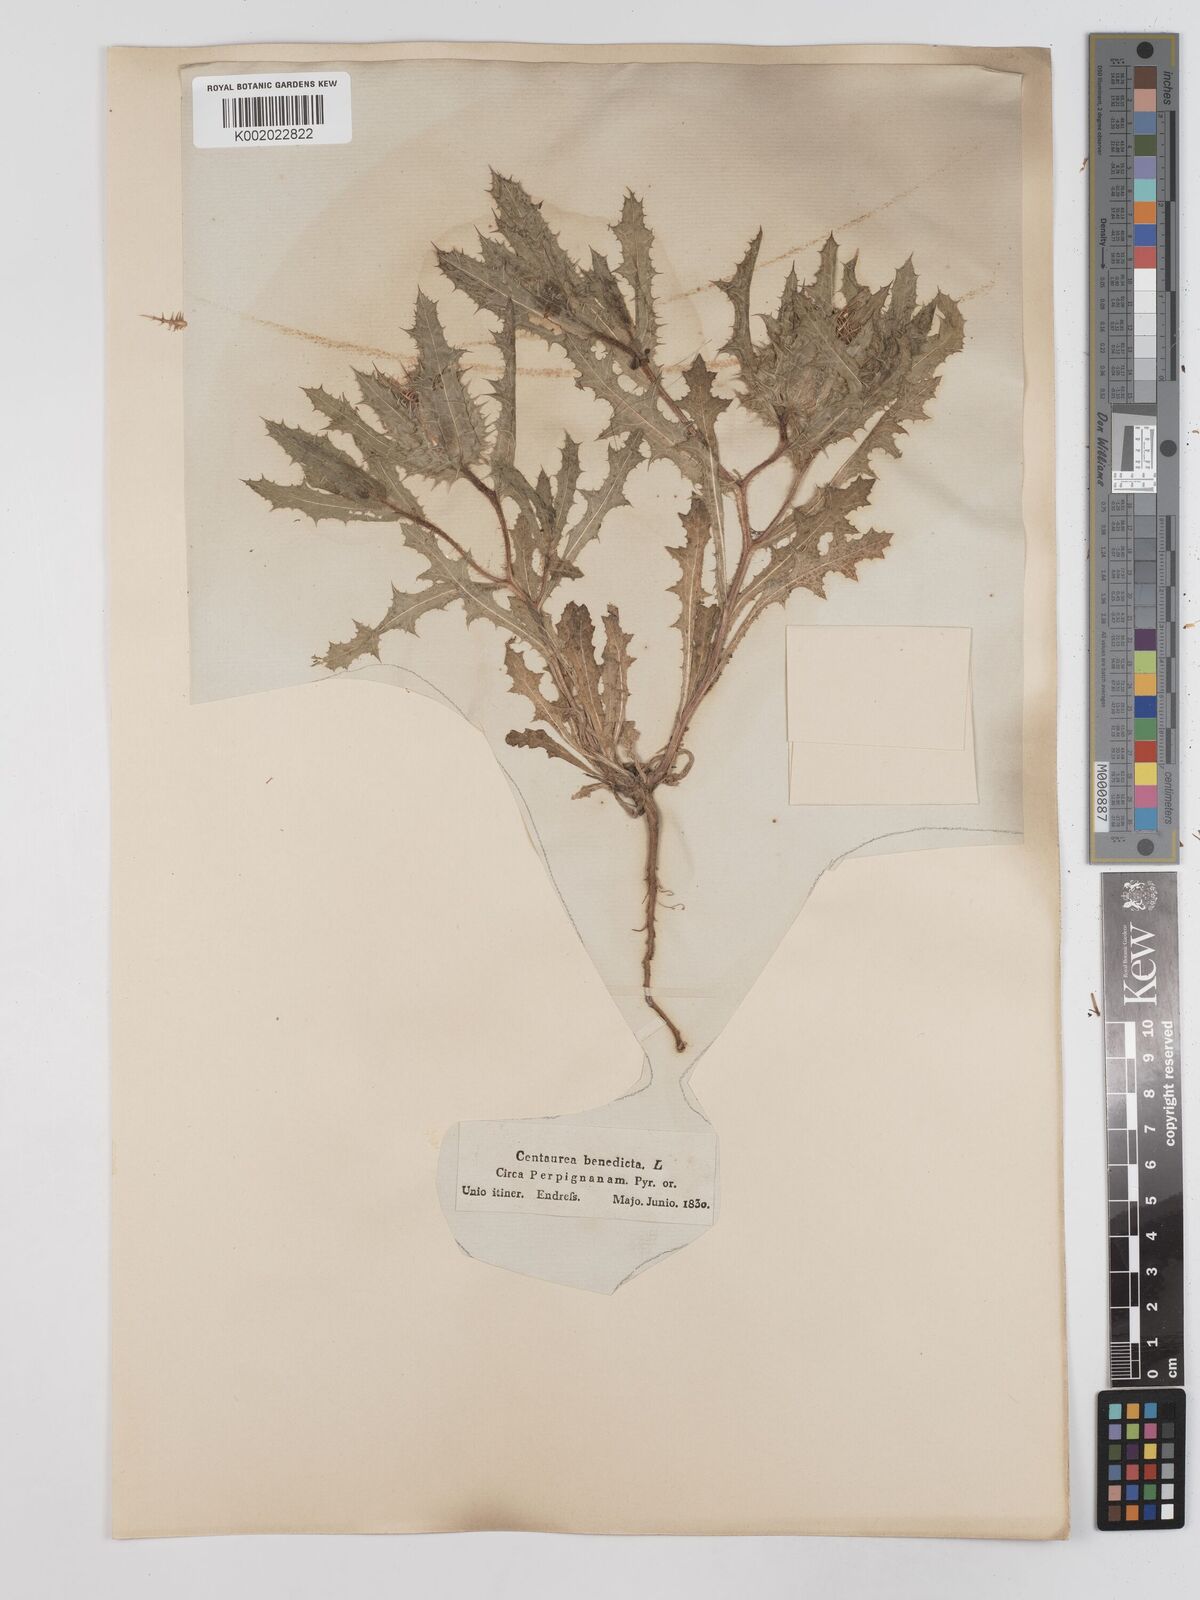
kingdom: Plantae
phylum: Tracheophyta
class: Magnoliopsida
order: Asterales
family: Asteraceae
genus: Centaurea
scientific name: Centaurea benedicta
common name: Blessed thistle
